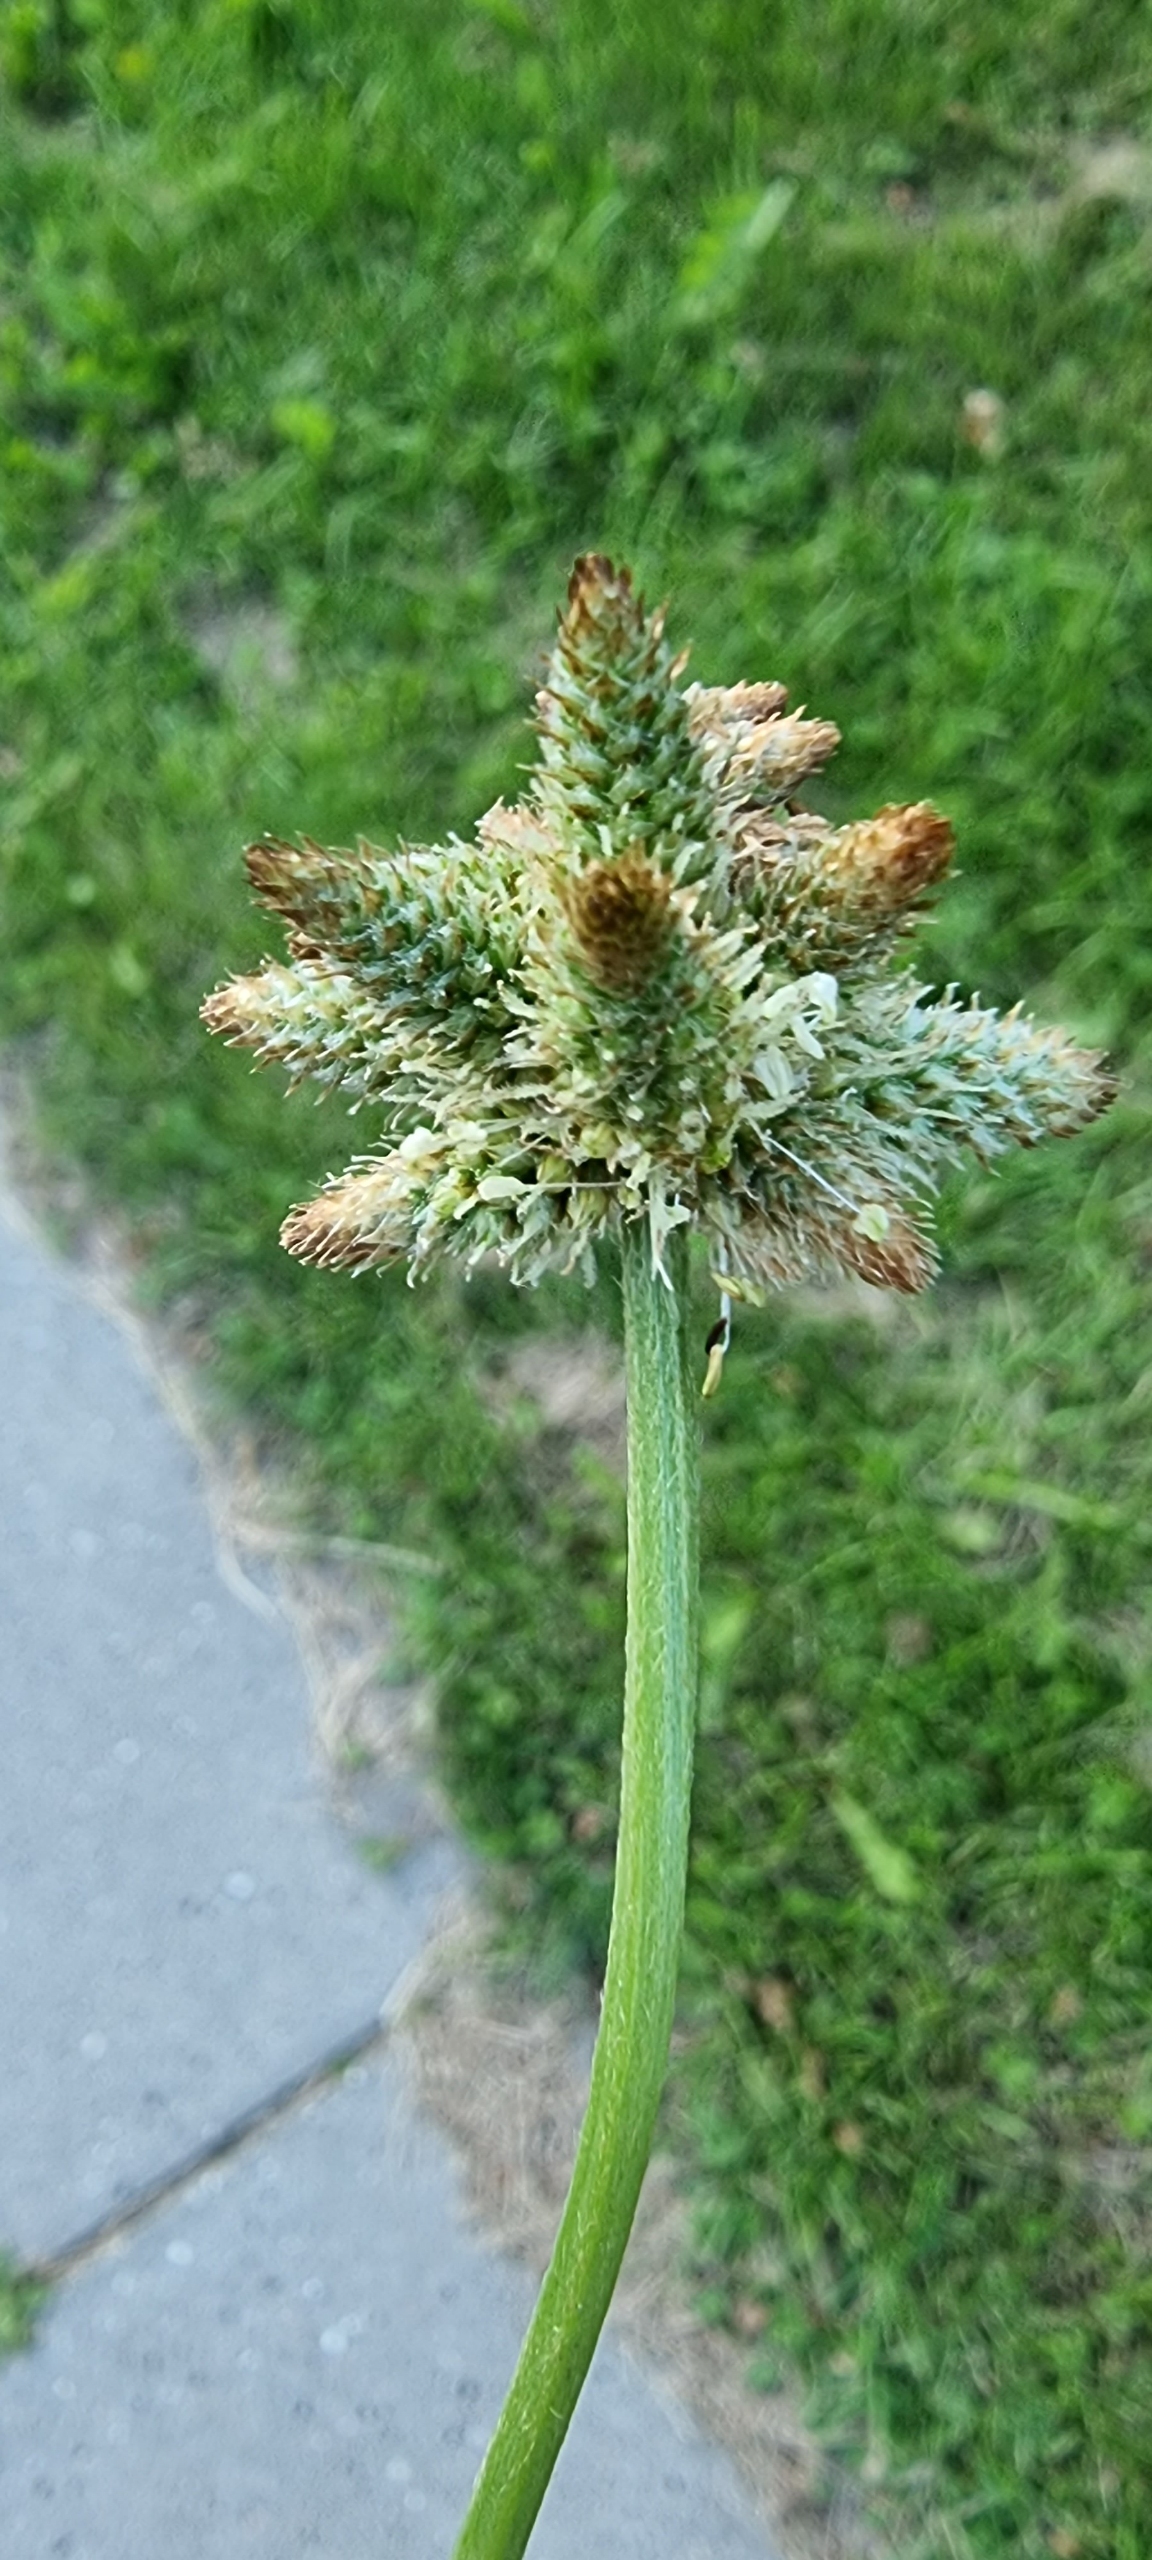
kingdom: Plantae
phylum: Tracheophyta
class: Magnoliopsida
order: Lamiales
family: Plantaginaceae
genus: Plantago
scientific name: Plantago lanceolata
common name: Lancet-vejbred
